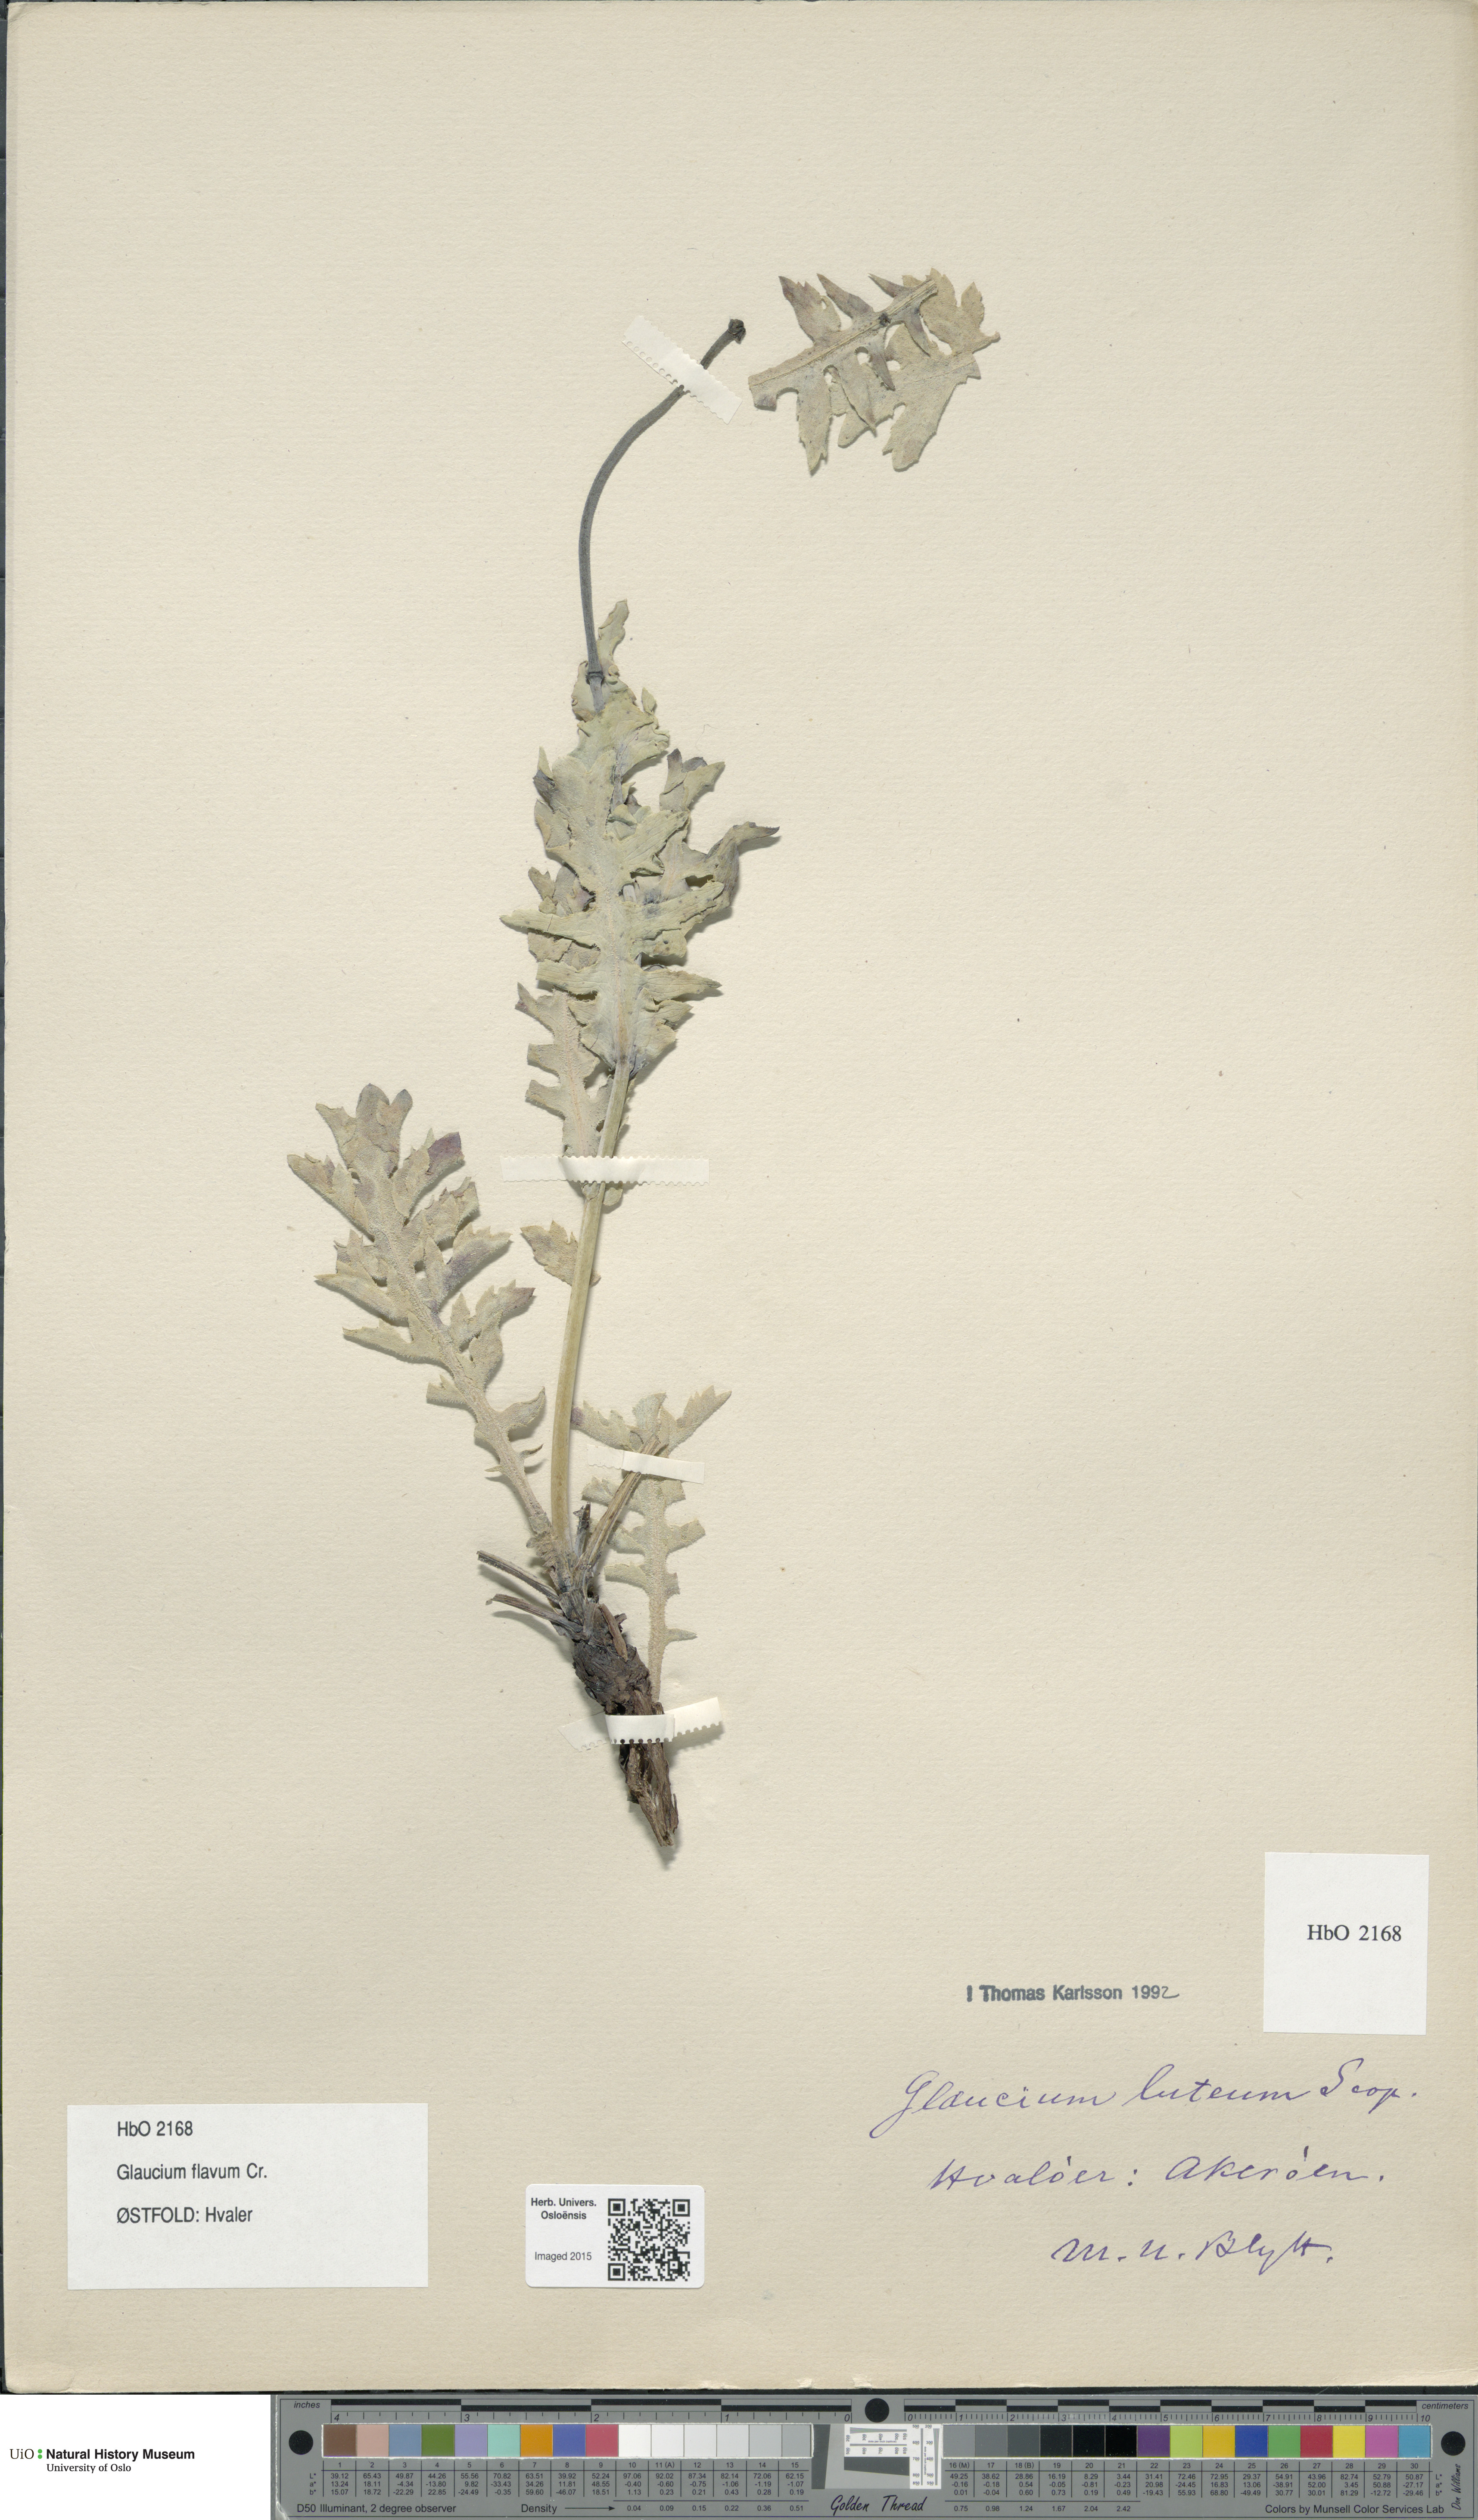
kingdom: Plantae
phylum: Tracheophyta
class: Magnoliopsida
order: Ranunculales
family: Papaveraceae
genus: Glaucium
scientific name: Glaucium flavum
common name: Yellow horned-poppy
